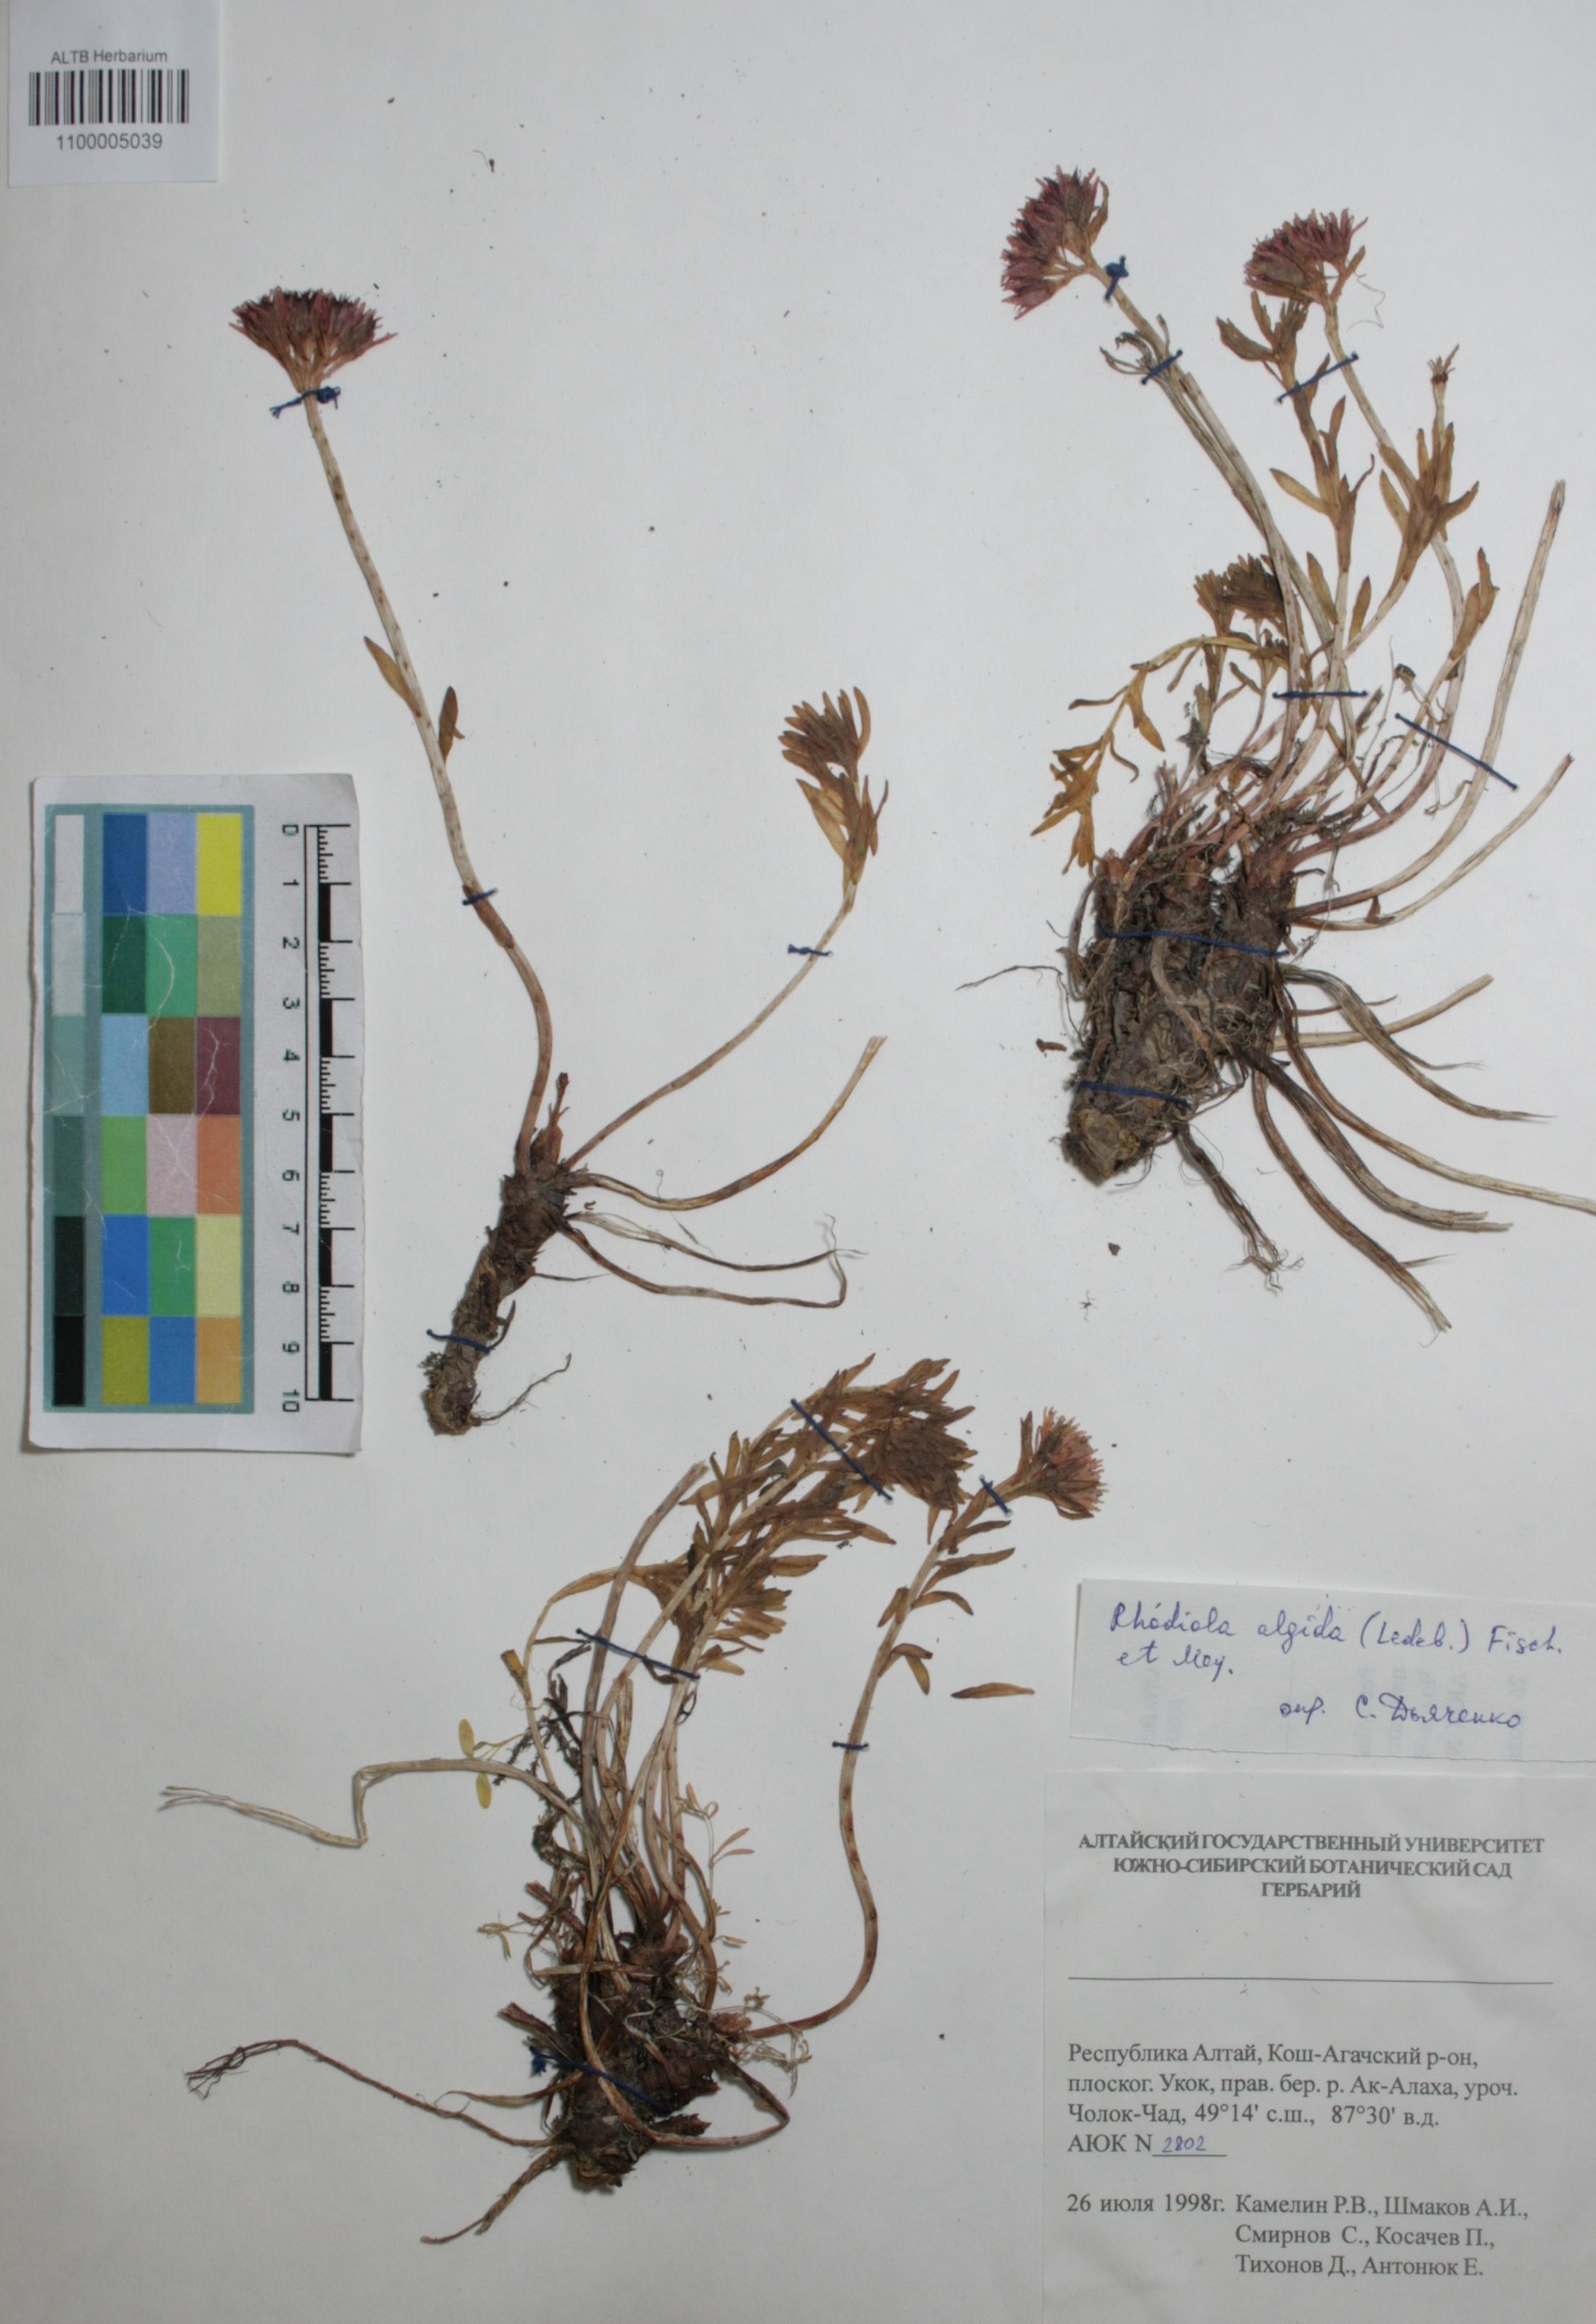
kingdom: Plantae
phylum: Tracheophyta
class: Magnoliopsida
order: Saxifragales
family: Crassulaceae
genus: Rhodiola
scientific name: Rhodiola algida
